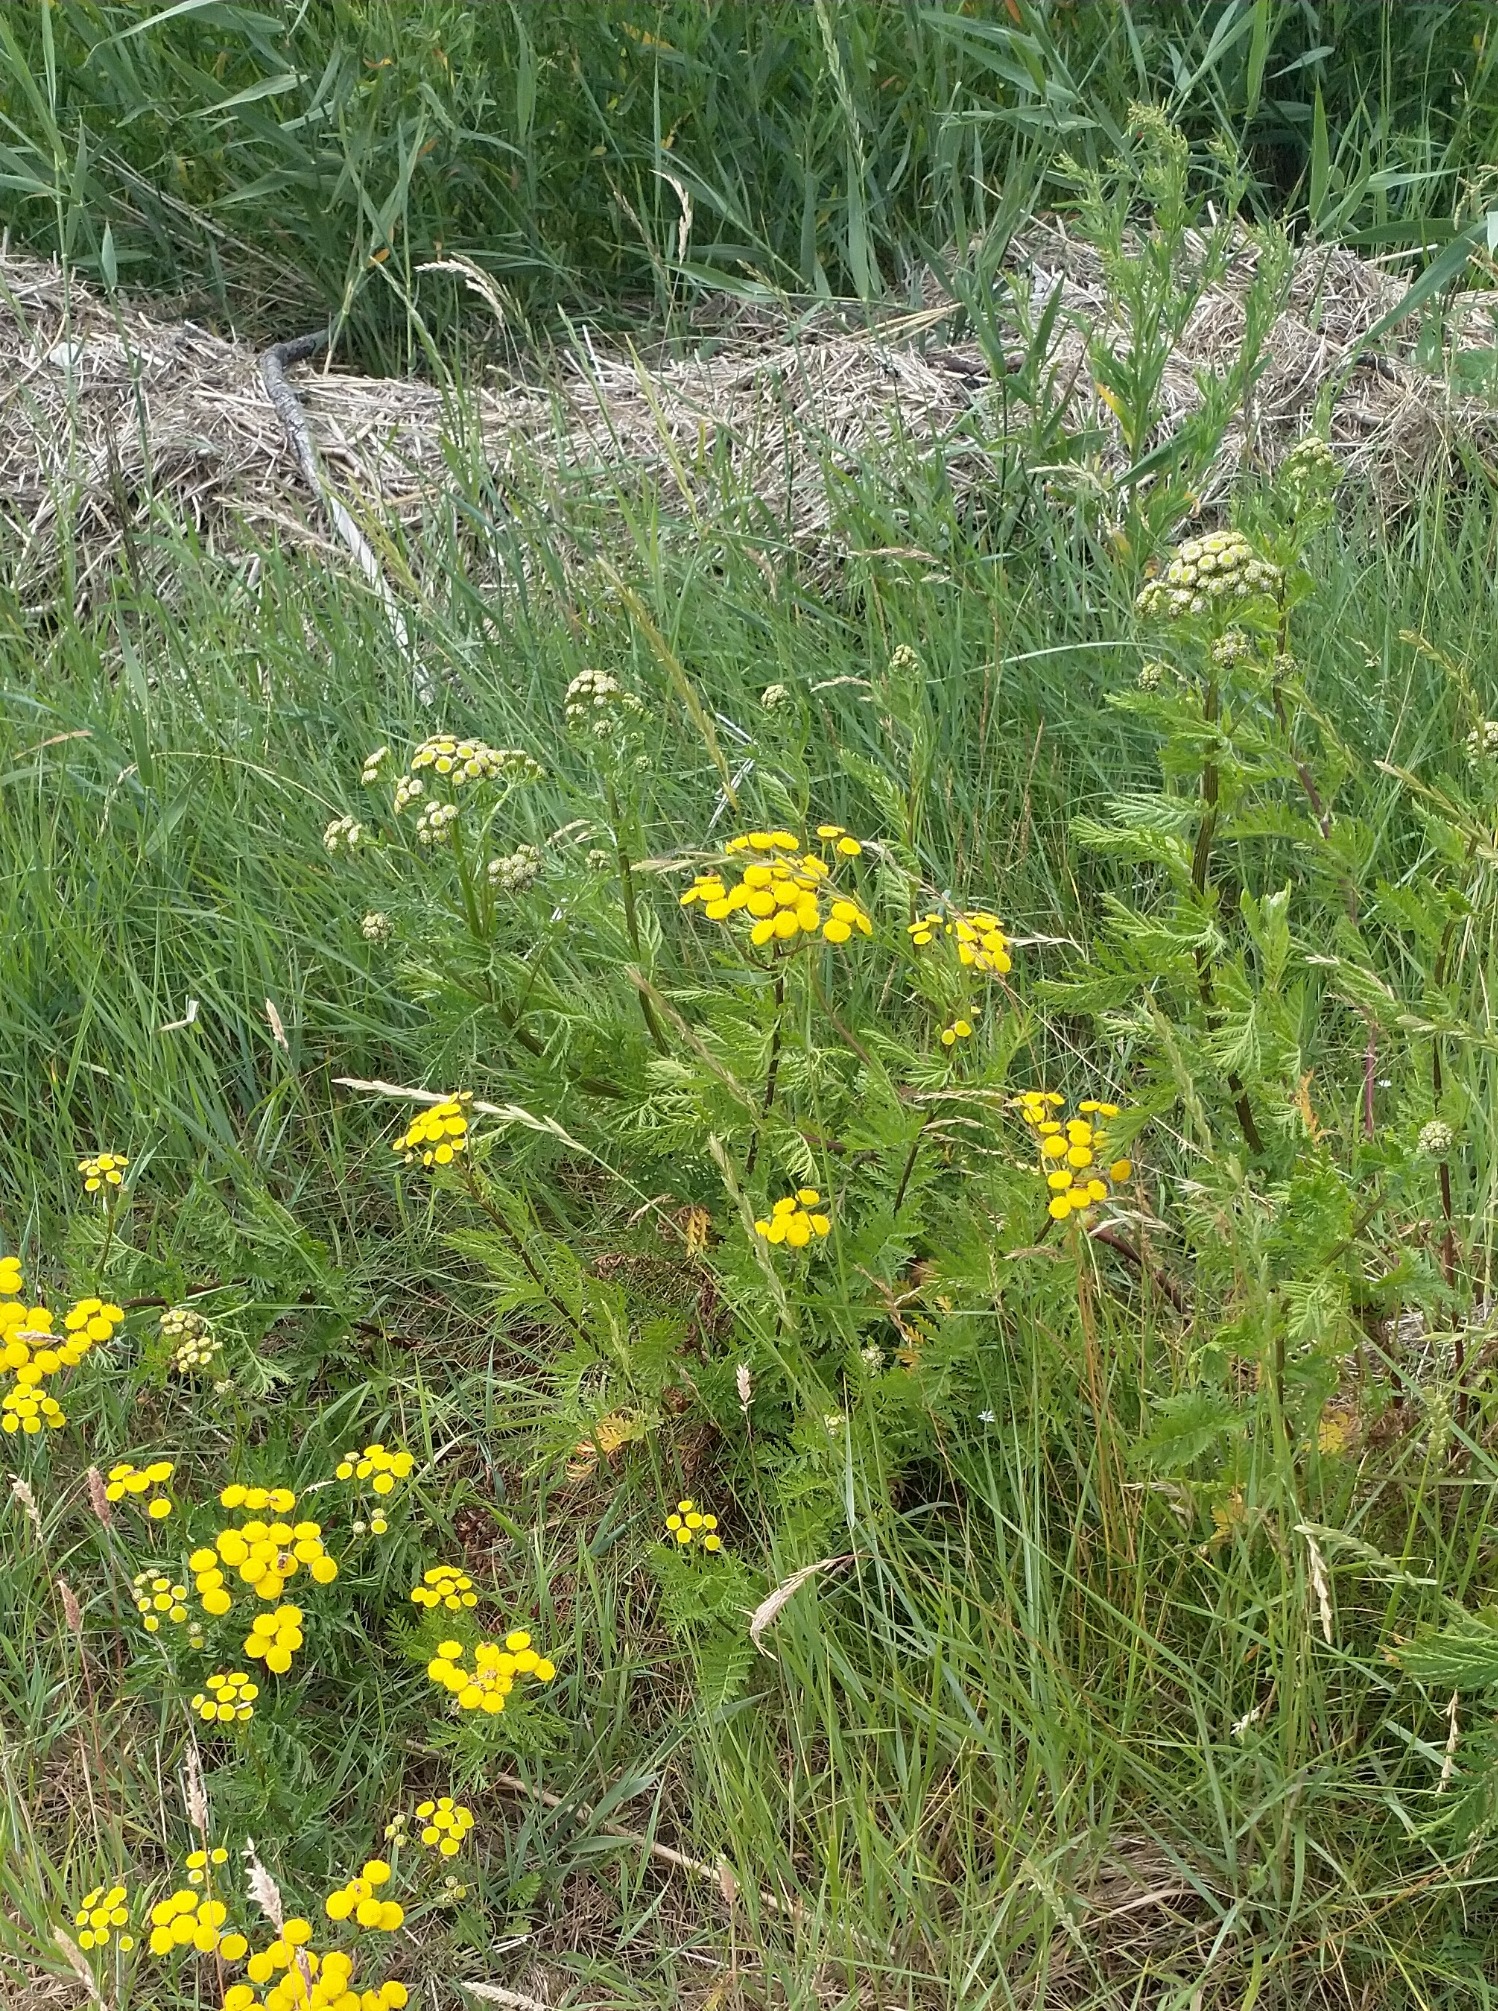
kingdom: Plantae
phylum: Tracheophyta
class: Magnoliopsida
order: Asterales
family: Asteraceae
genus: Tanacetum
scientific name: Tanacetum vulgare
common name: Rejnfan
